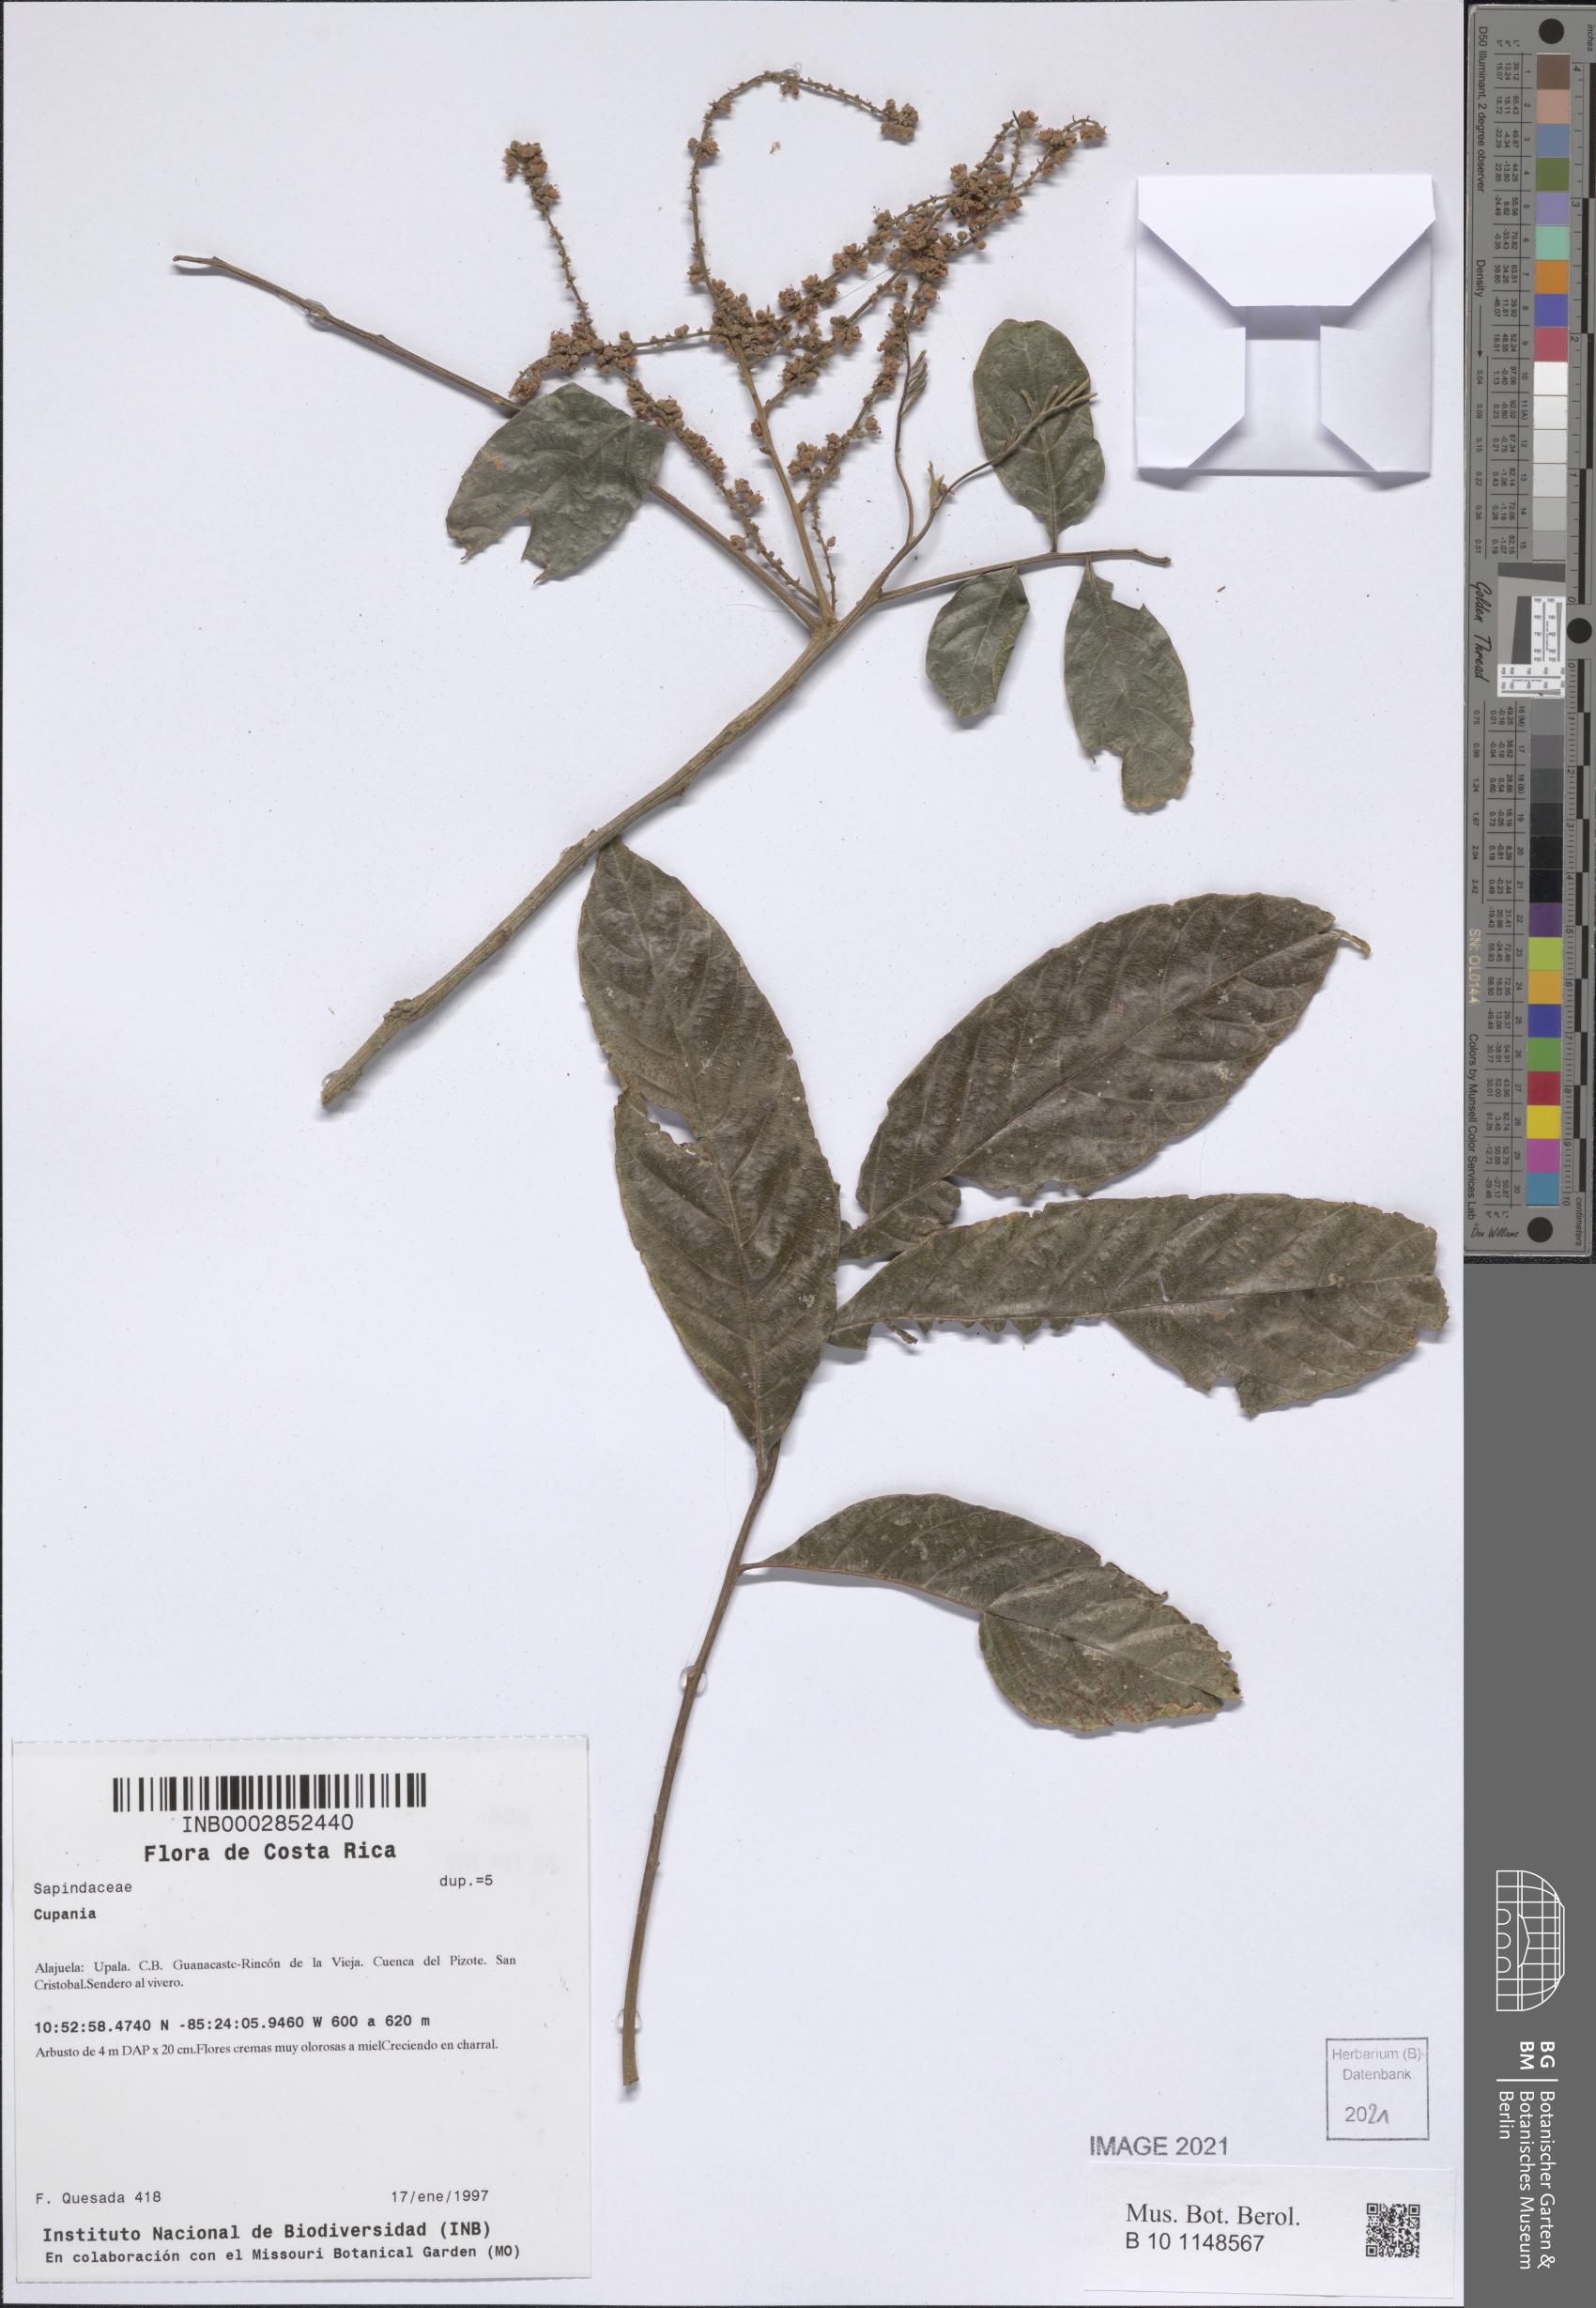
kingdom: Plantae
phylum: Tracheophyta
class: Magnoliopsida
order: Sapindales
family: Sapindaceae
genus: Cupania
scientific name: Cupania
